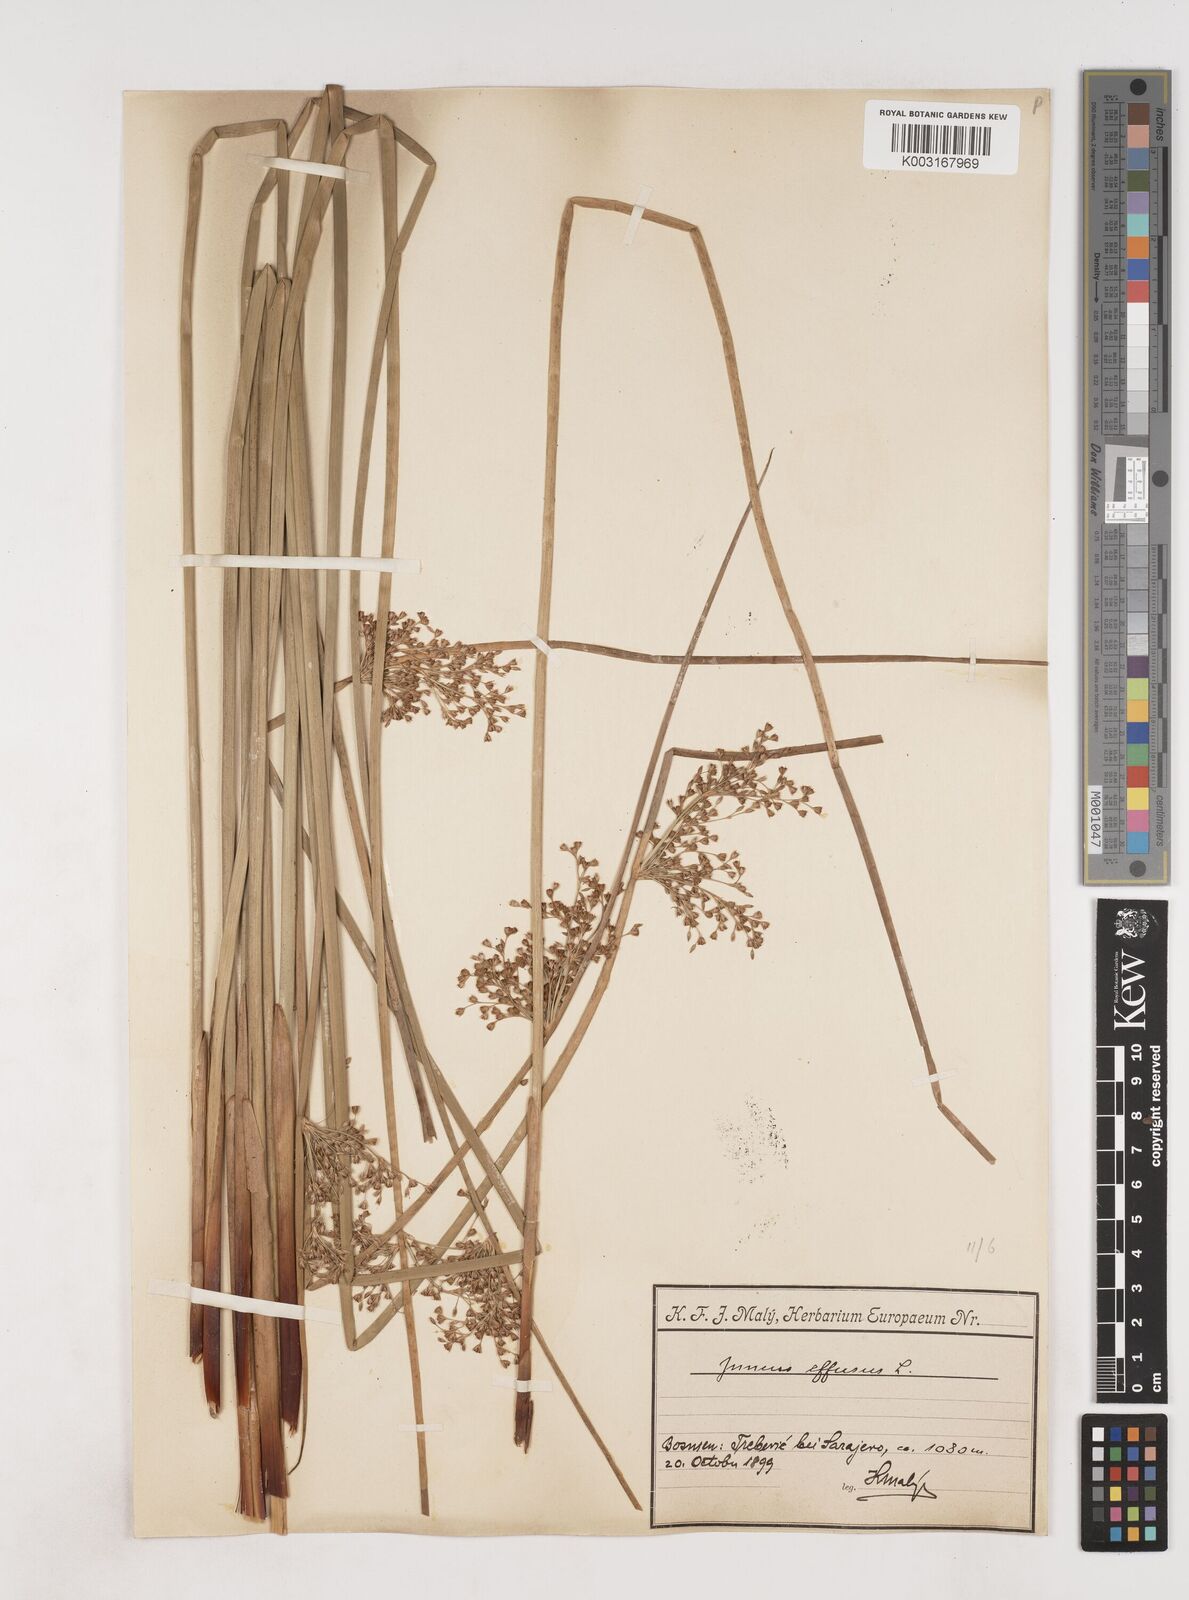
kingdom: Plantae
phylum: Tracheophyta
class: Liliopsida
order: Poales
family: Juncaceae
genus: Juncus
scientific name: Juncus effusus
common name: Soft rush
